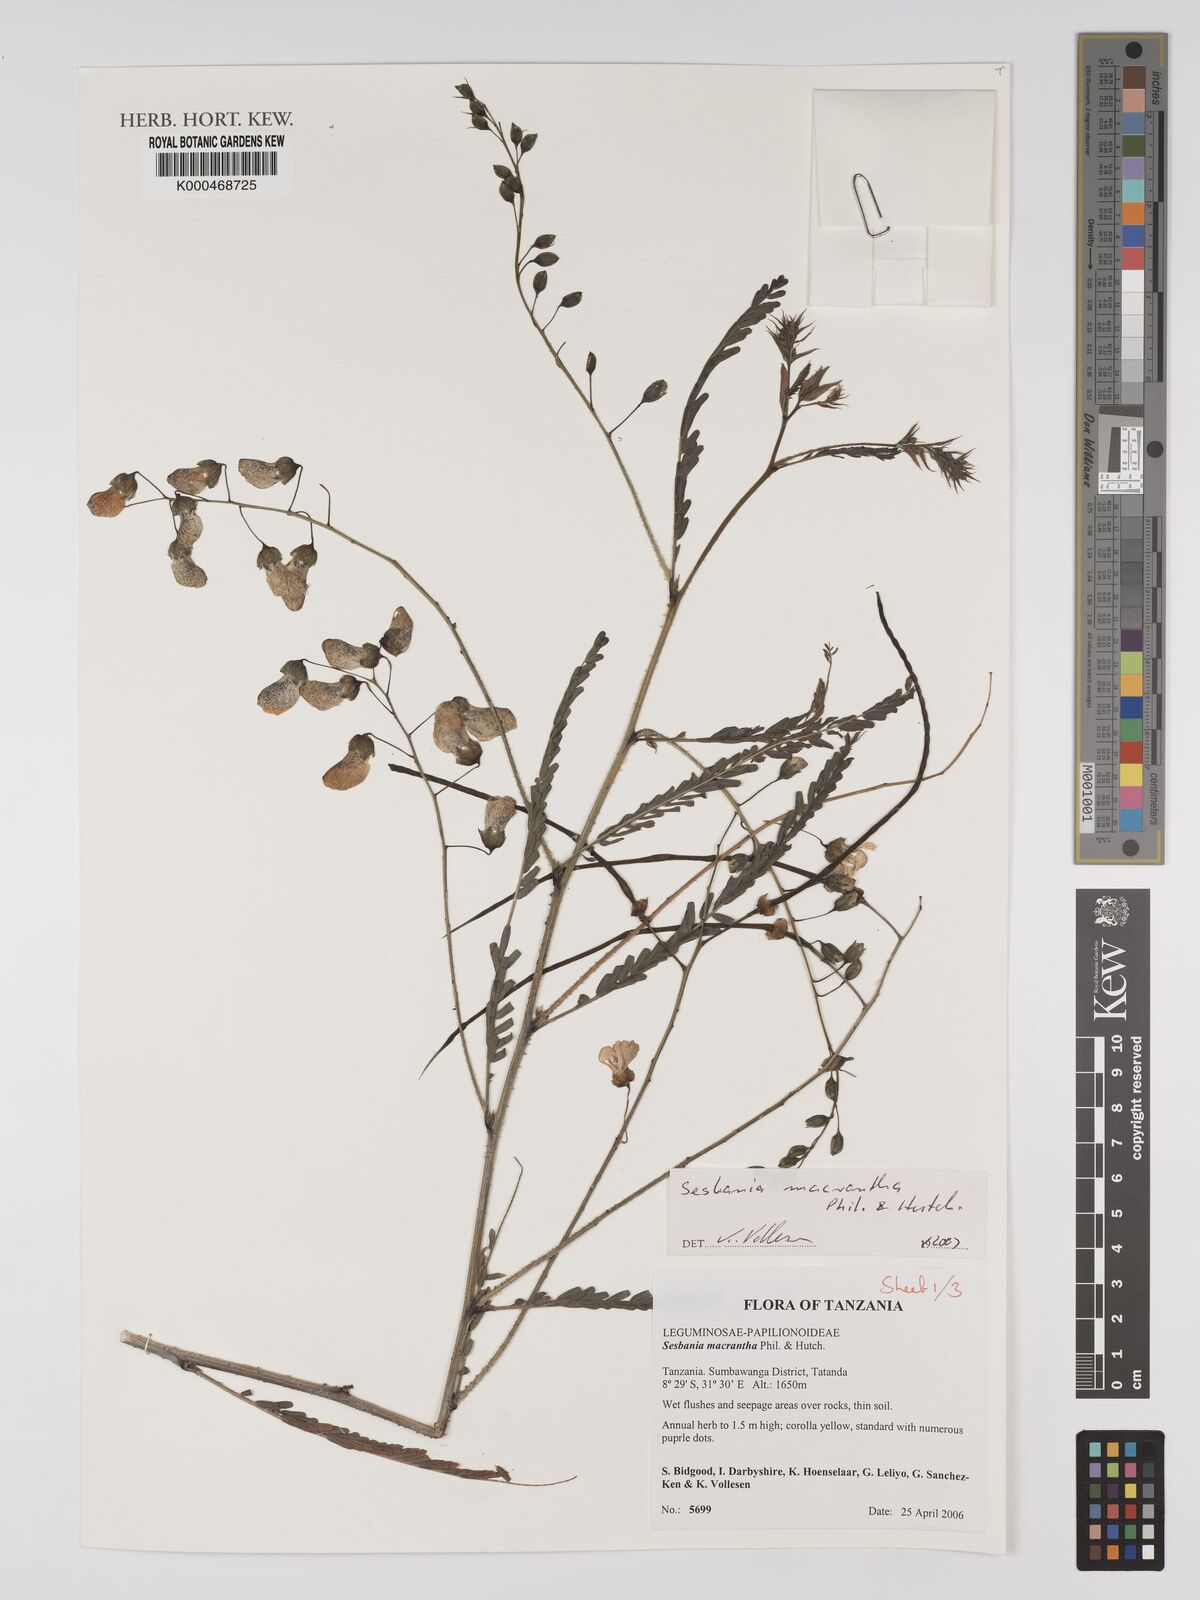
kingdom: Plantae
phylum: Tracheophyta
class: Magnoliopsida
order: Fabales
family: Fabaceae
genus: Sesbania
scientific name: Sesbania macrantha
